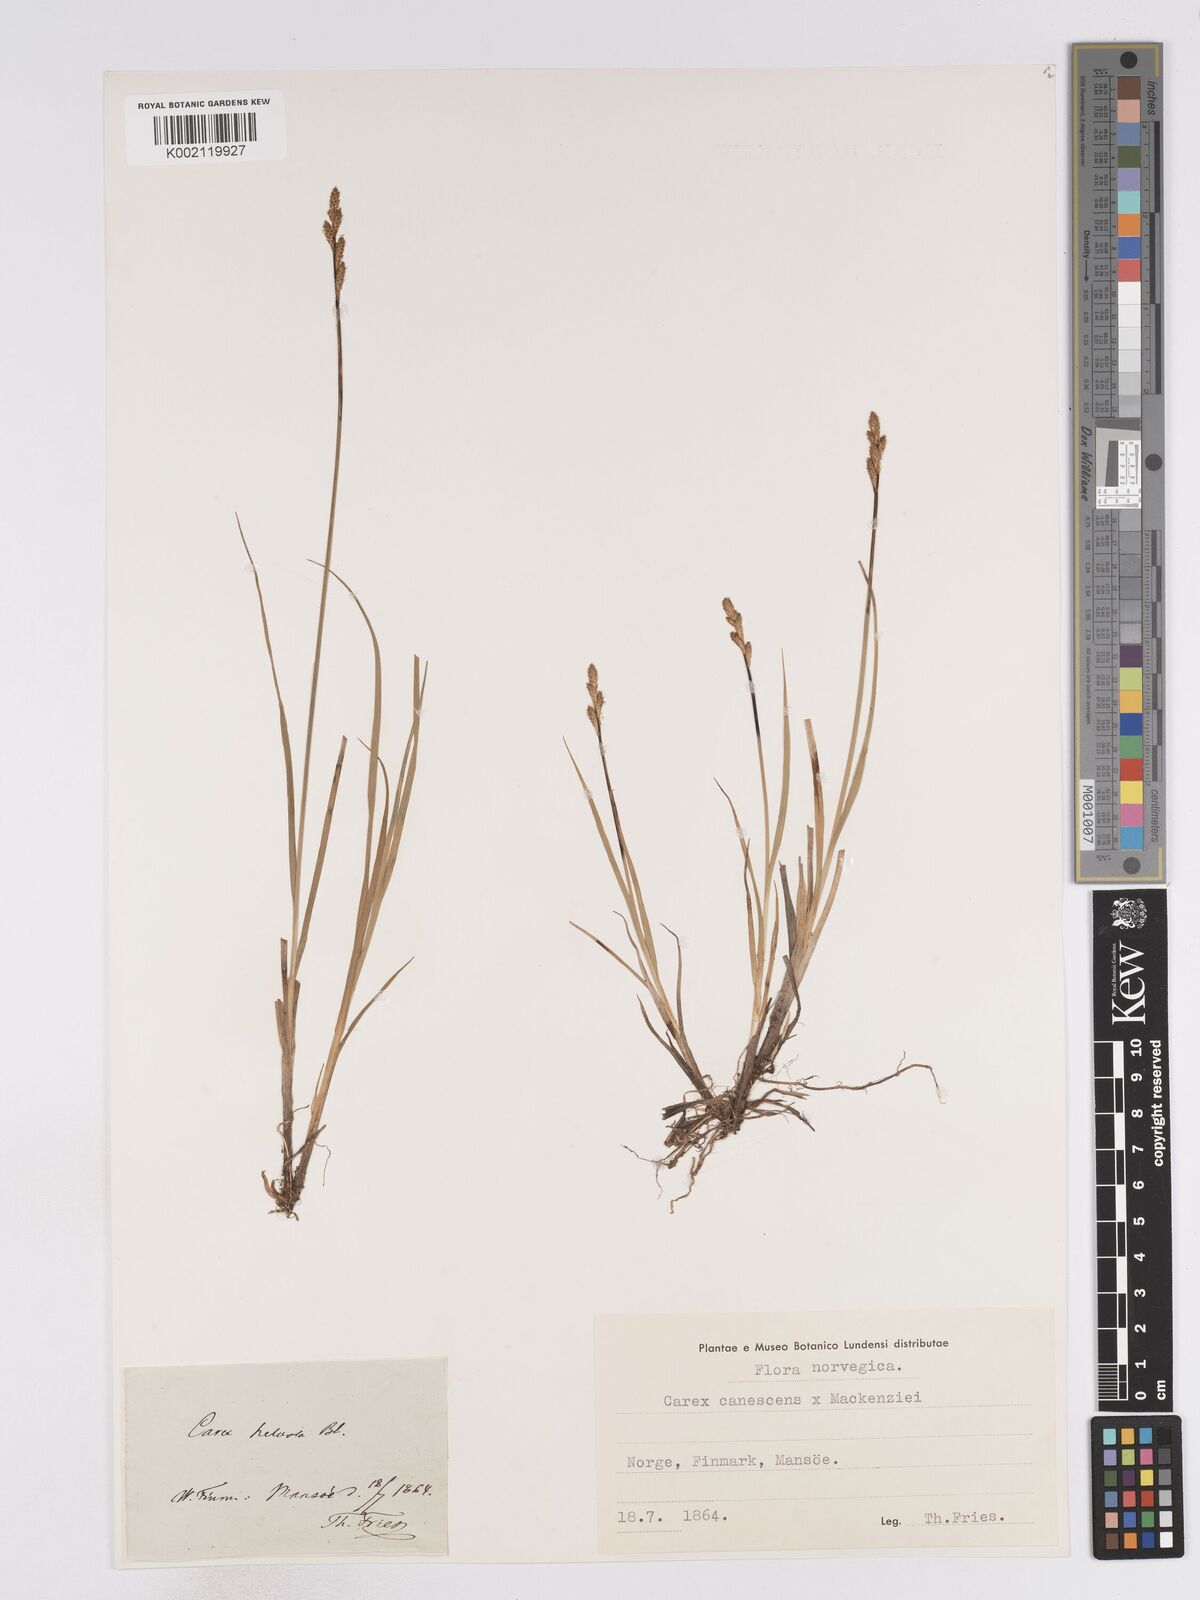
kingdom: Plantae
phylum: Tracheophyta
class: Liliopsida
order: Poales
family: Cyperaceae
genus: Carex
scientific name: Carex curta
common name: White sedge
